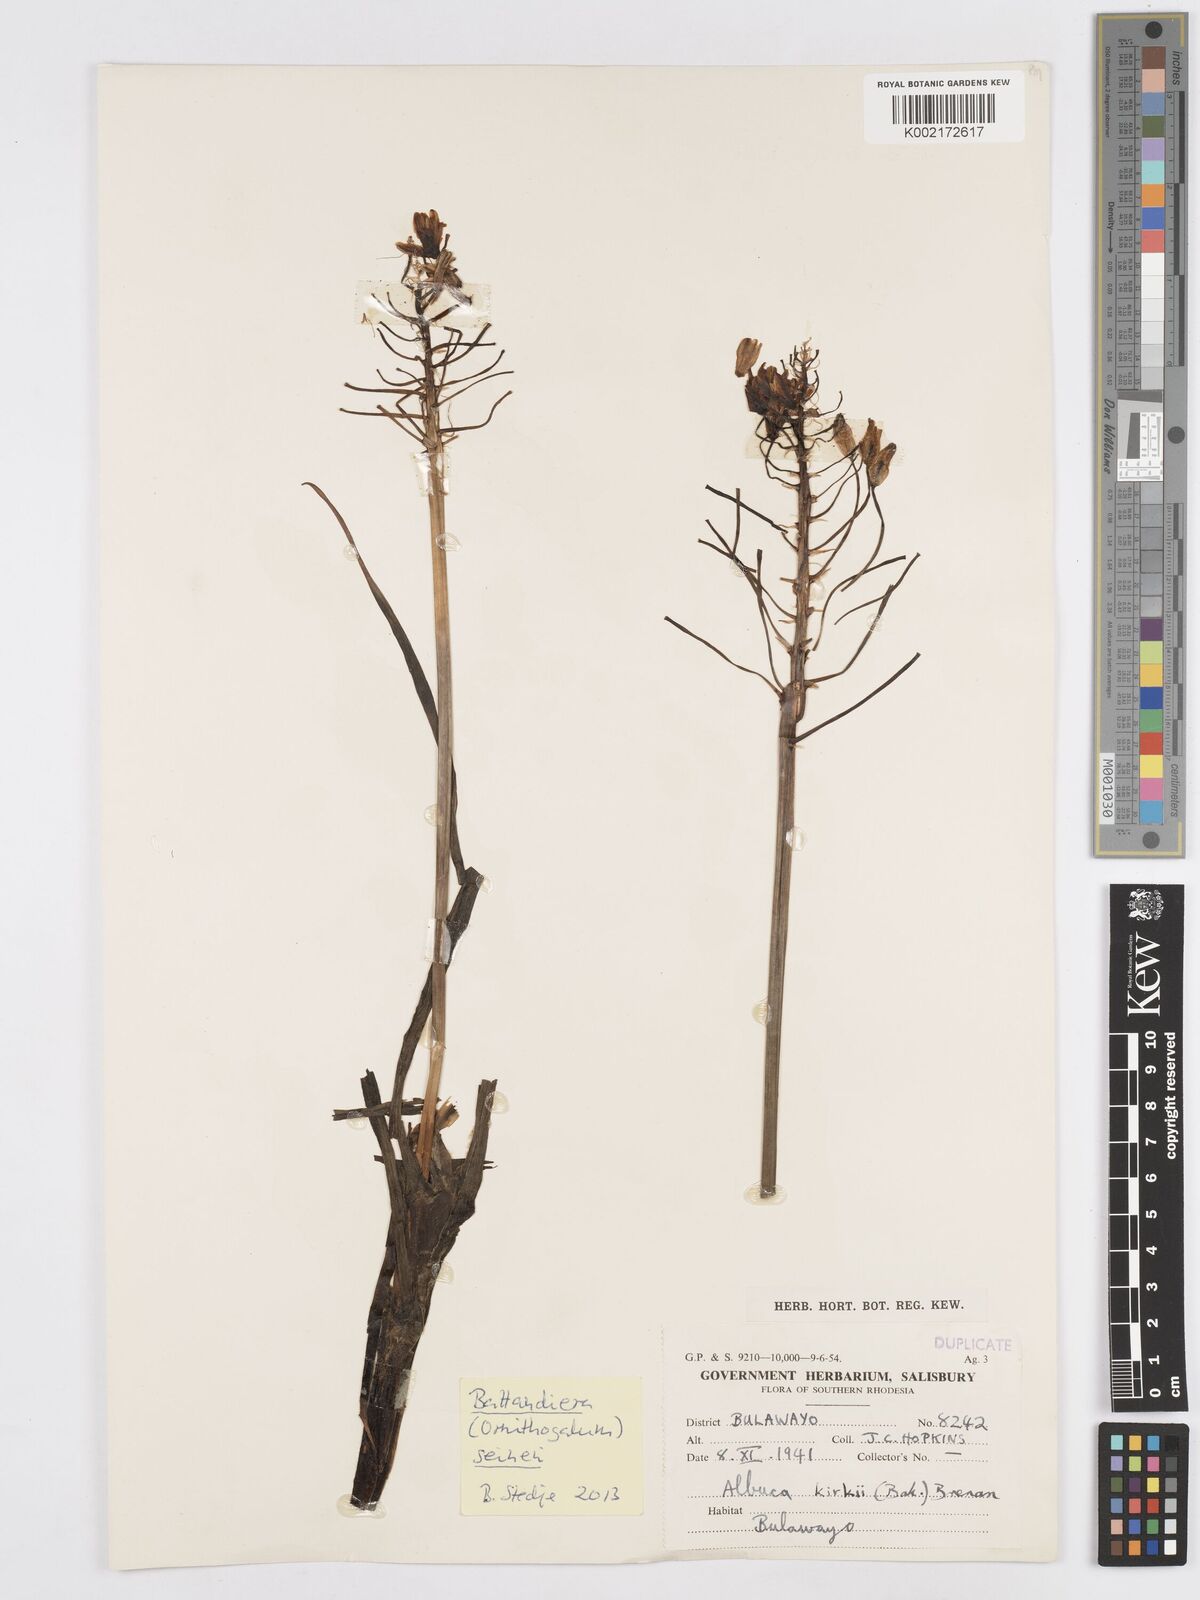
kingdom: Plantae
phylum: Tracheophyta
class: Liliopsida
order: Asparagales
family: Asparagaceae
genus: Albuca
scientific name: Albuca kirkii
